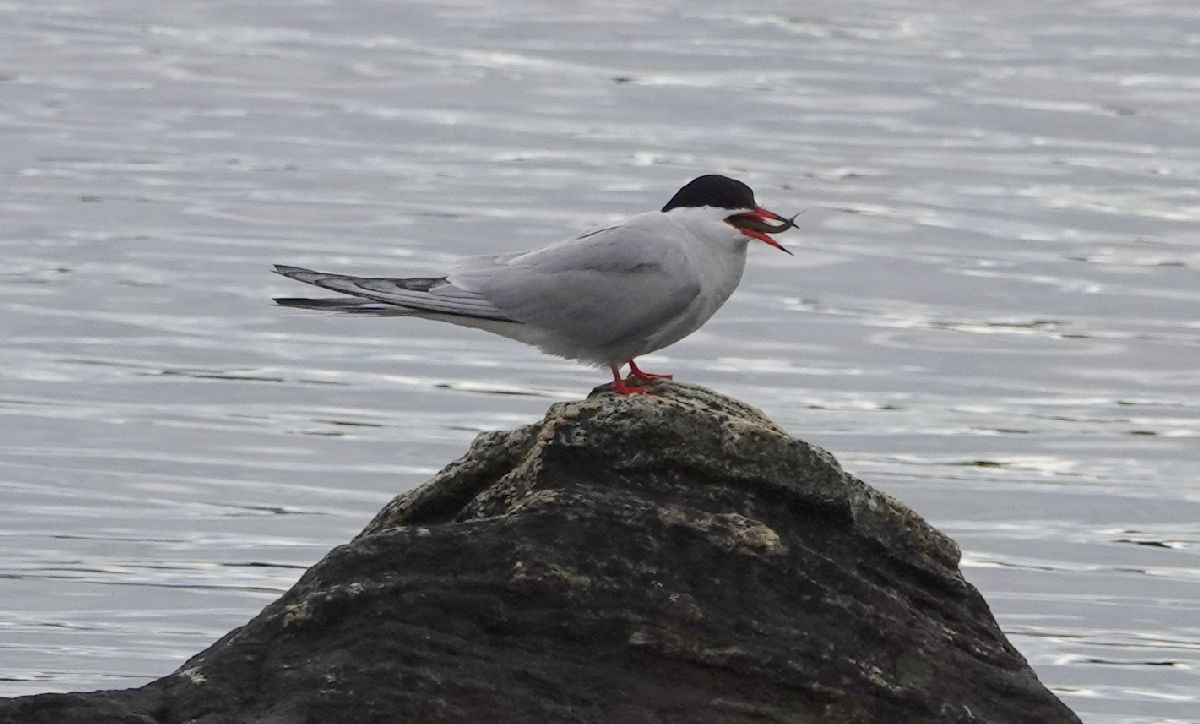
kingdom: Animalia
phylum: Chordata
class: Aves
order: Charadriiformes
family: Laridae
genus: Sterna
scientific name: Sterna hirundo
